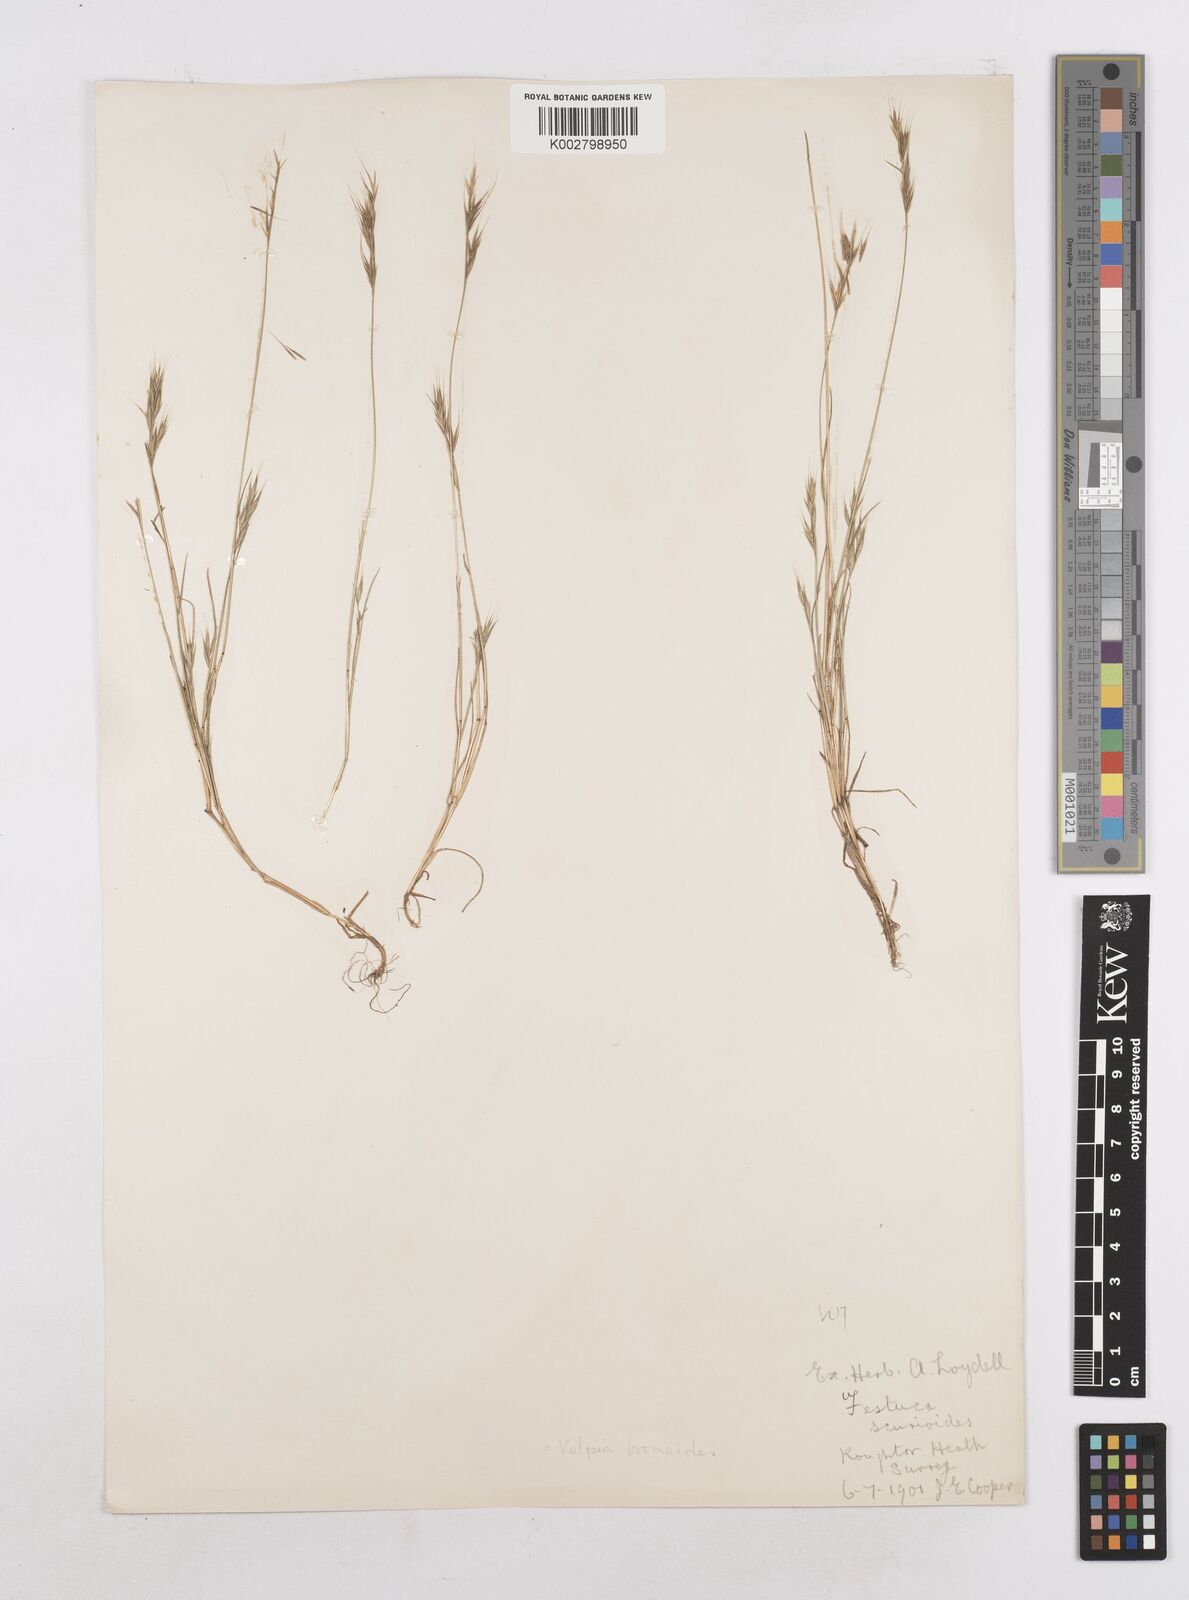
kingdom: Plantae
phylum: Tracheophyta
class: Liliopsida
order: Poales
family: Poaceae
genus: Festuca
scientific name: Festuca bromoides
